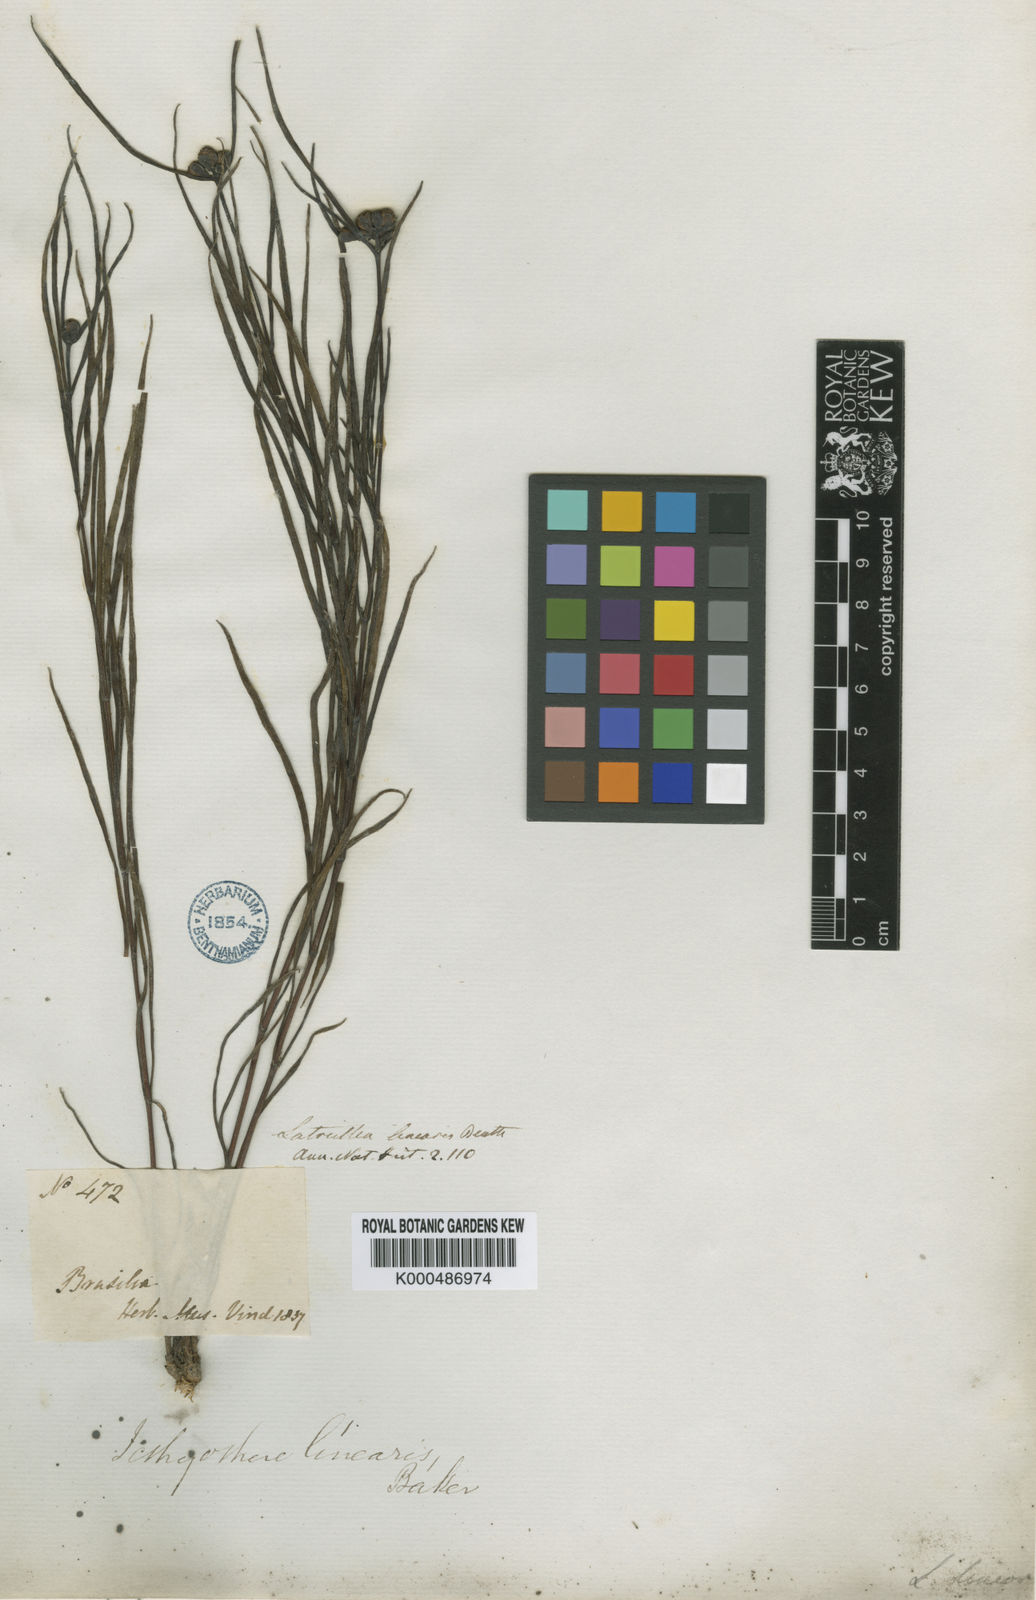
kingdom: Plantae
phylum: Tracheophyta
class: Magnoliopsida
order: Asterales
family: Asteraceae
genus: Ichthyothere
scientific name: Ichthyothere linearis
